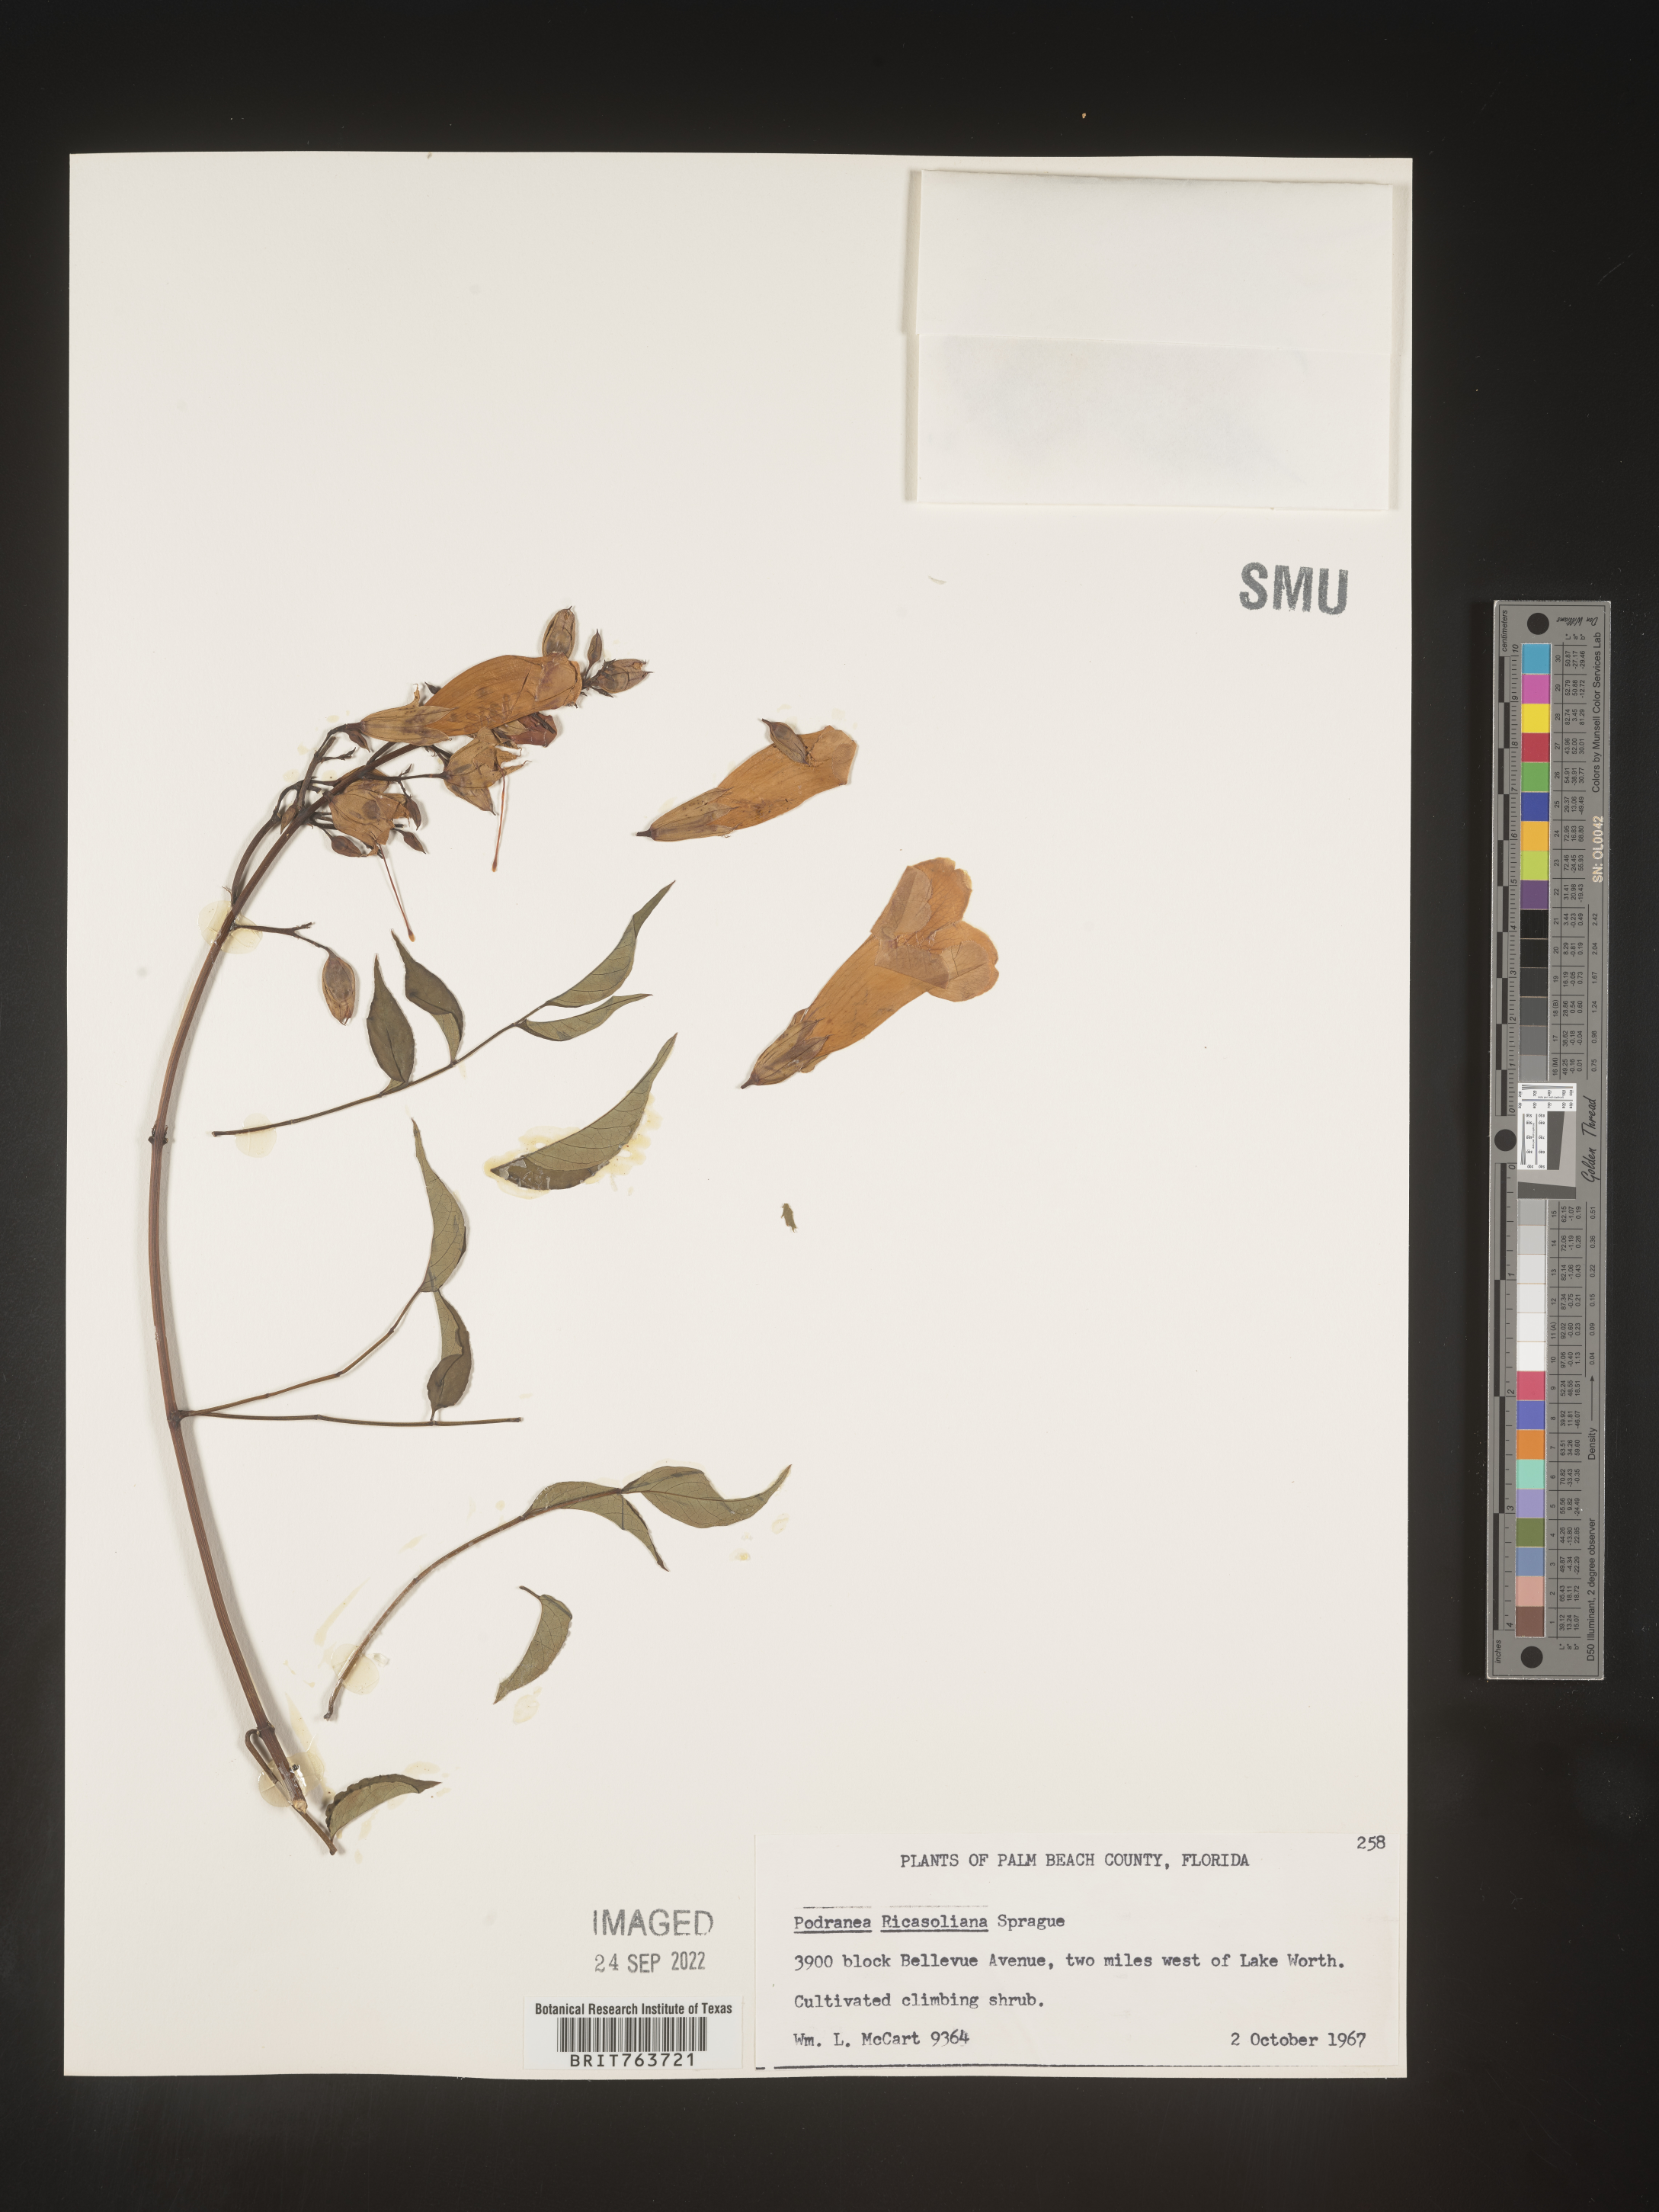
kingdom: Plantae
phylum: Tracheophyta
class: Magnoliopsida
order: Lamiales
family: Bignoniaceae
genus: Podranea
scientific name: Podranea
